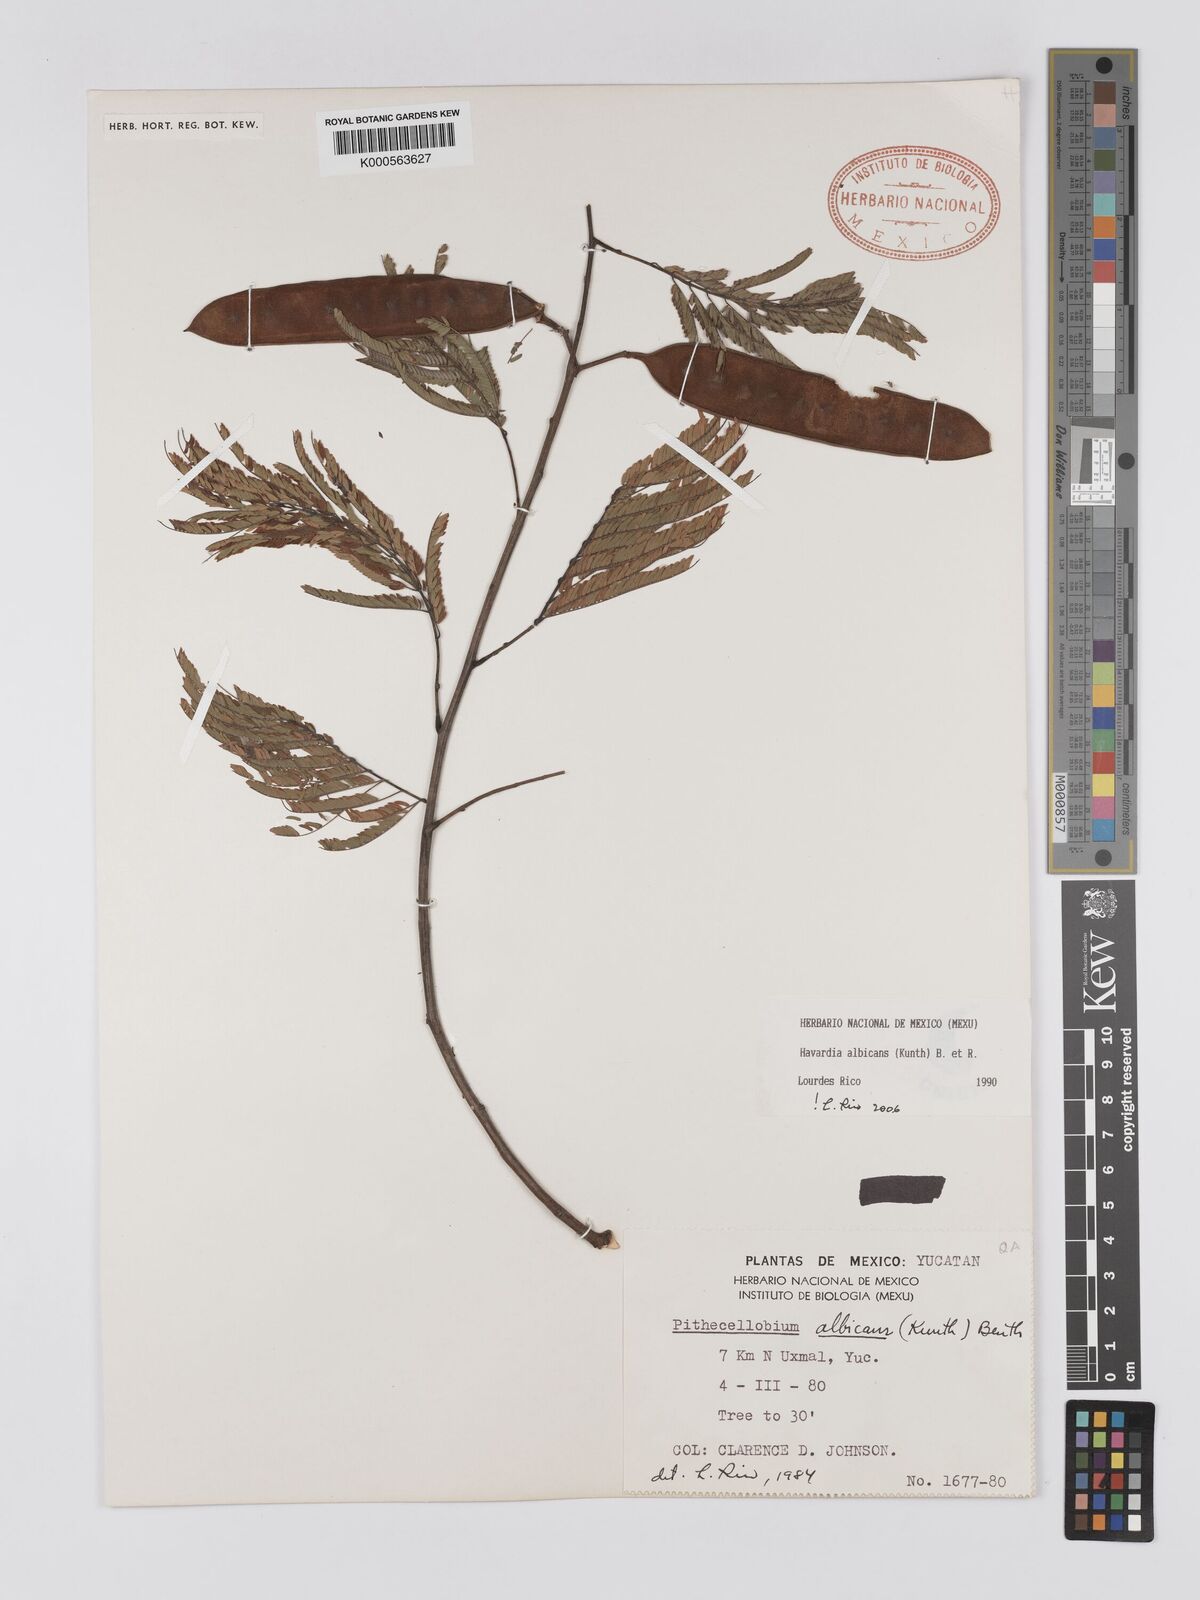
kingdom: Plantae
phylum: Tracheophyta
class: Magnoliopsida
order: Fabales
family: Fabaceae
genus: Havardia
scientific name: Havardia pallens
